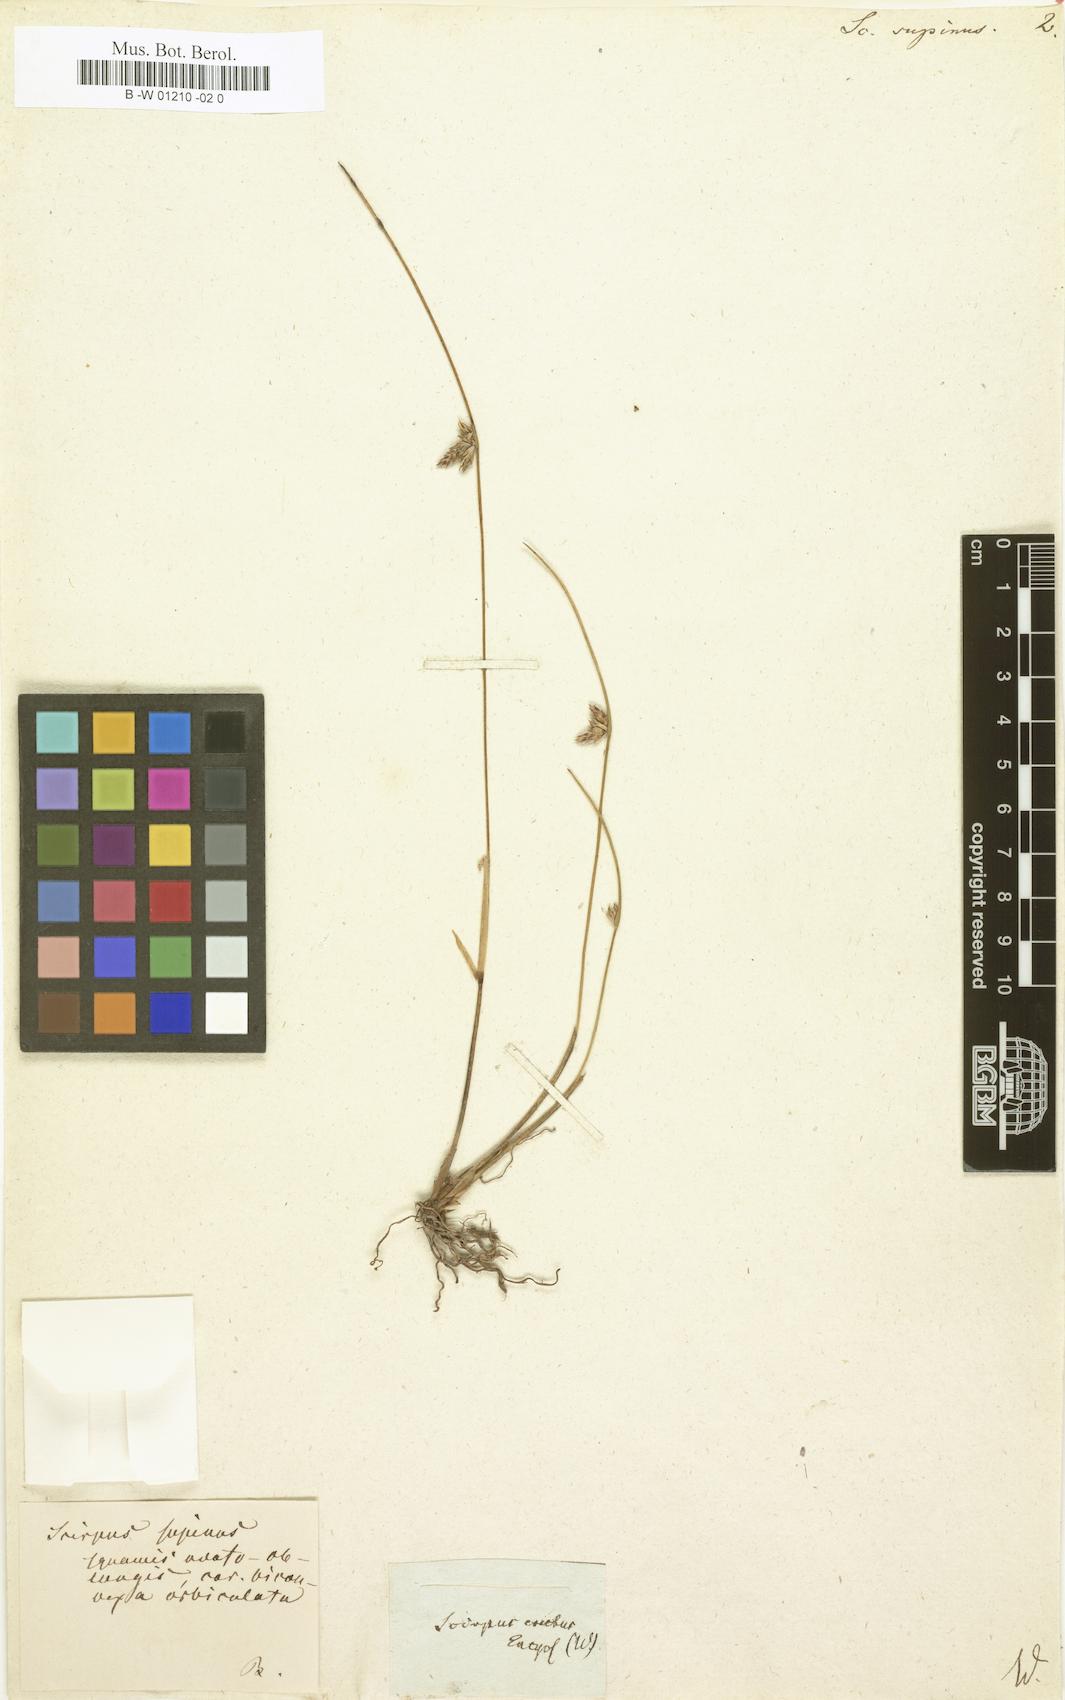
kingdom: Plantae
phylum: Tracheophyta
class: Liliopsida
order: Poales
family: Cyperaceae
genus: Scirpus
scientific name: Scirpus supinus
